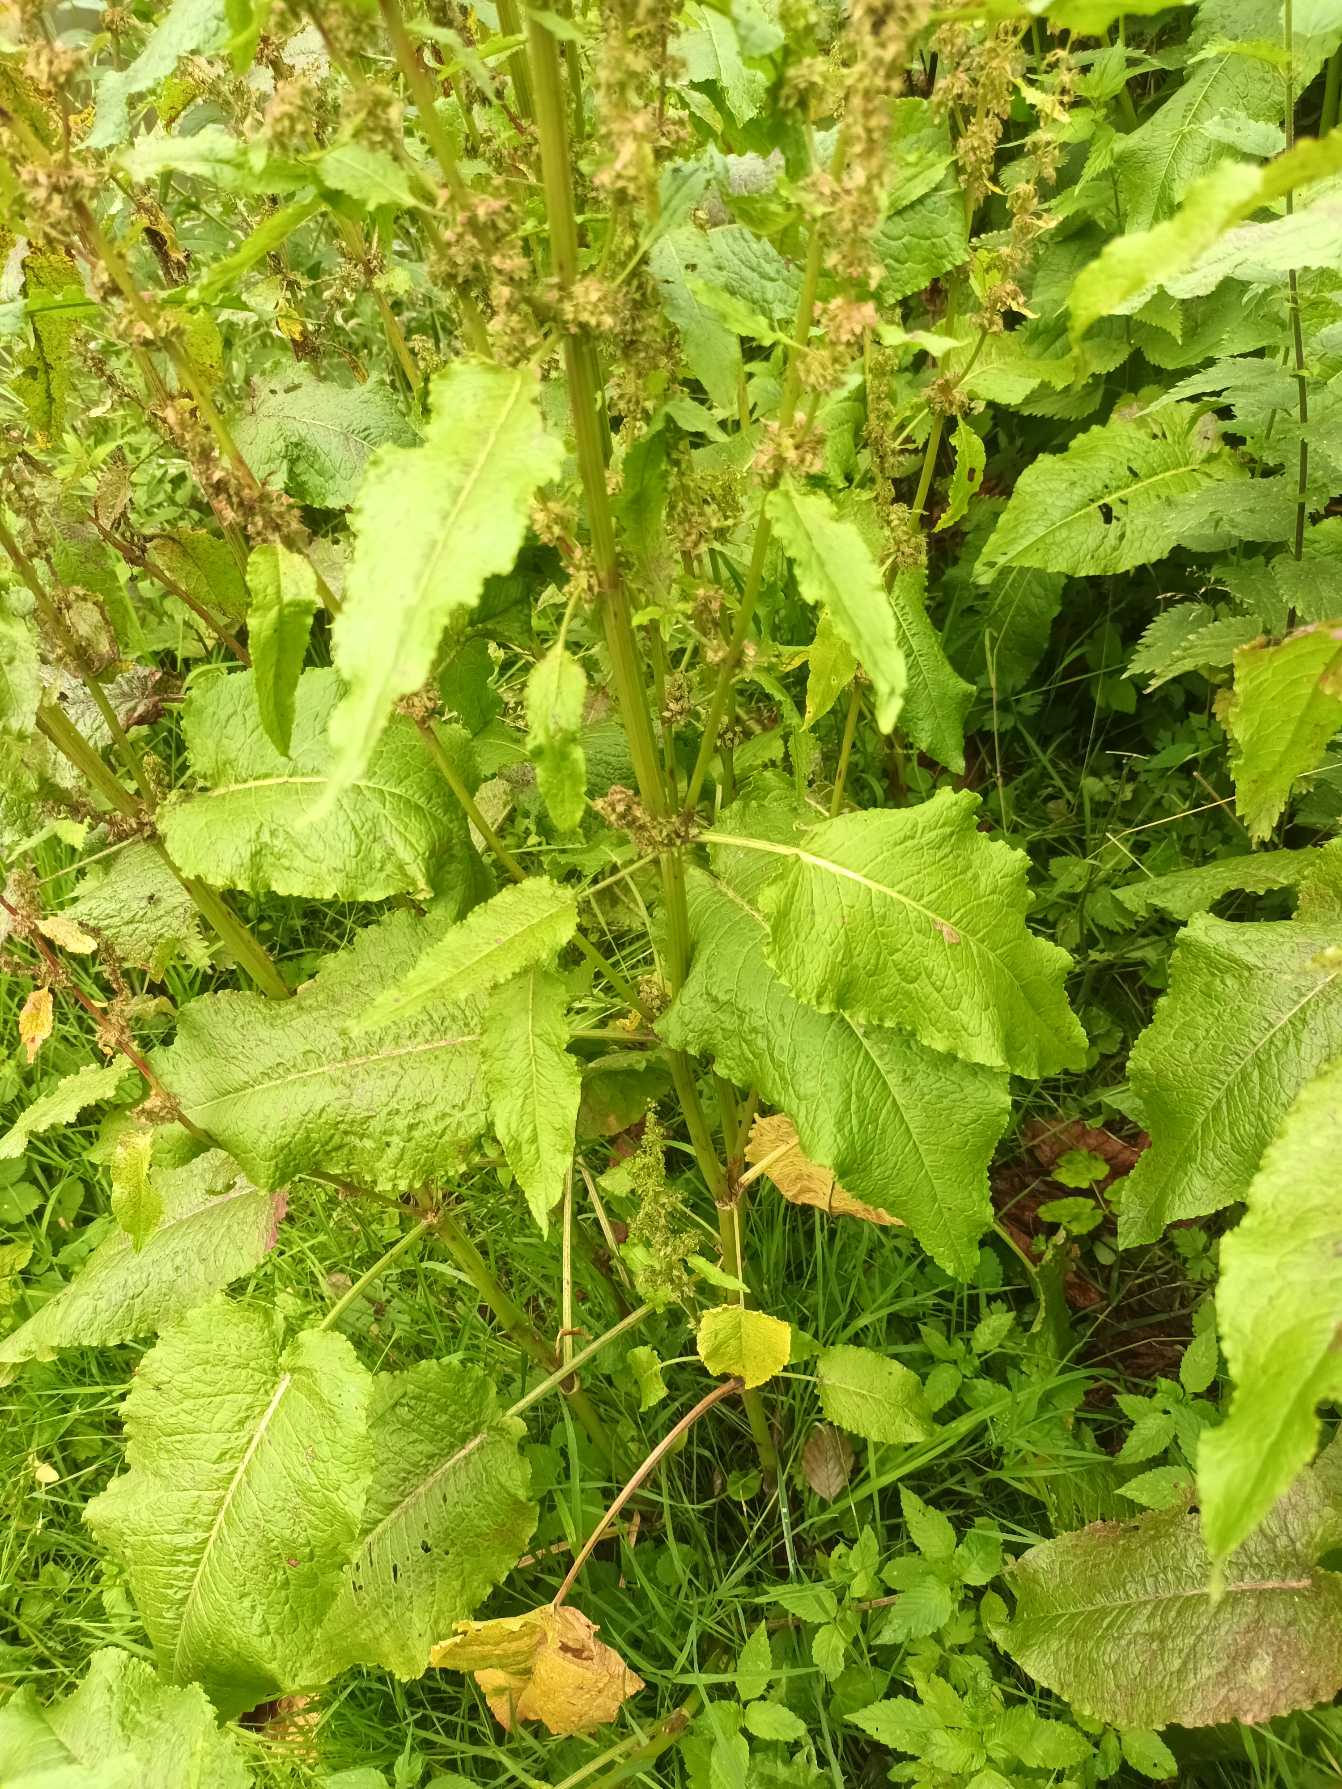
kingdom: Plantae
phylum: Tracheophyta
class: Magnoliopsida
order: Caryophyllales
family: Polygonaceae
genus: Rumex
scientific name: Rumex obtusifolius
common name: Butbladet skræppe
